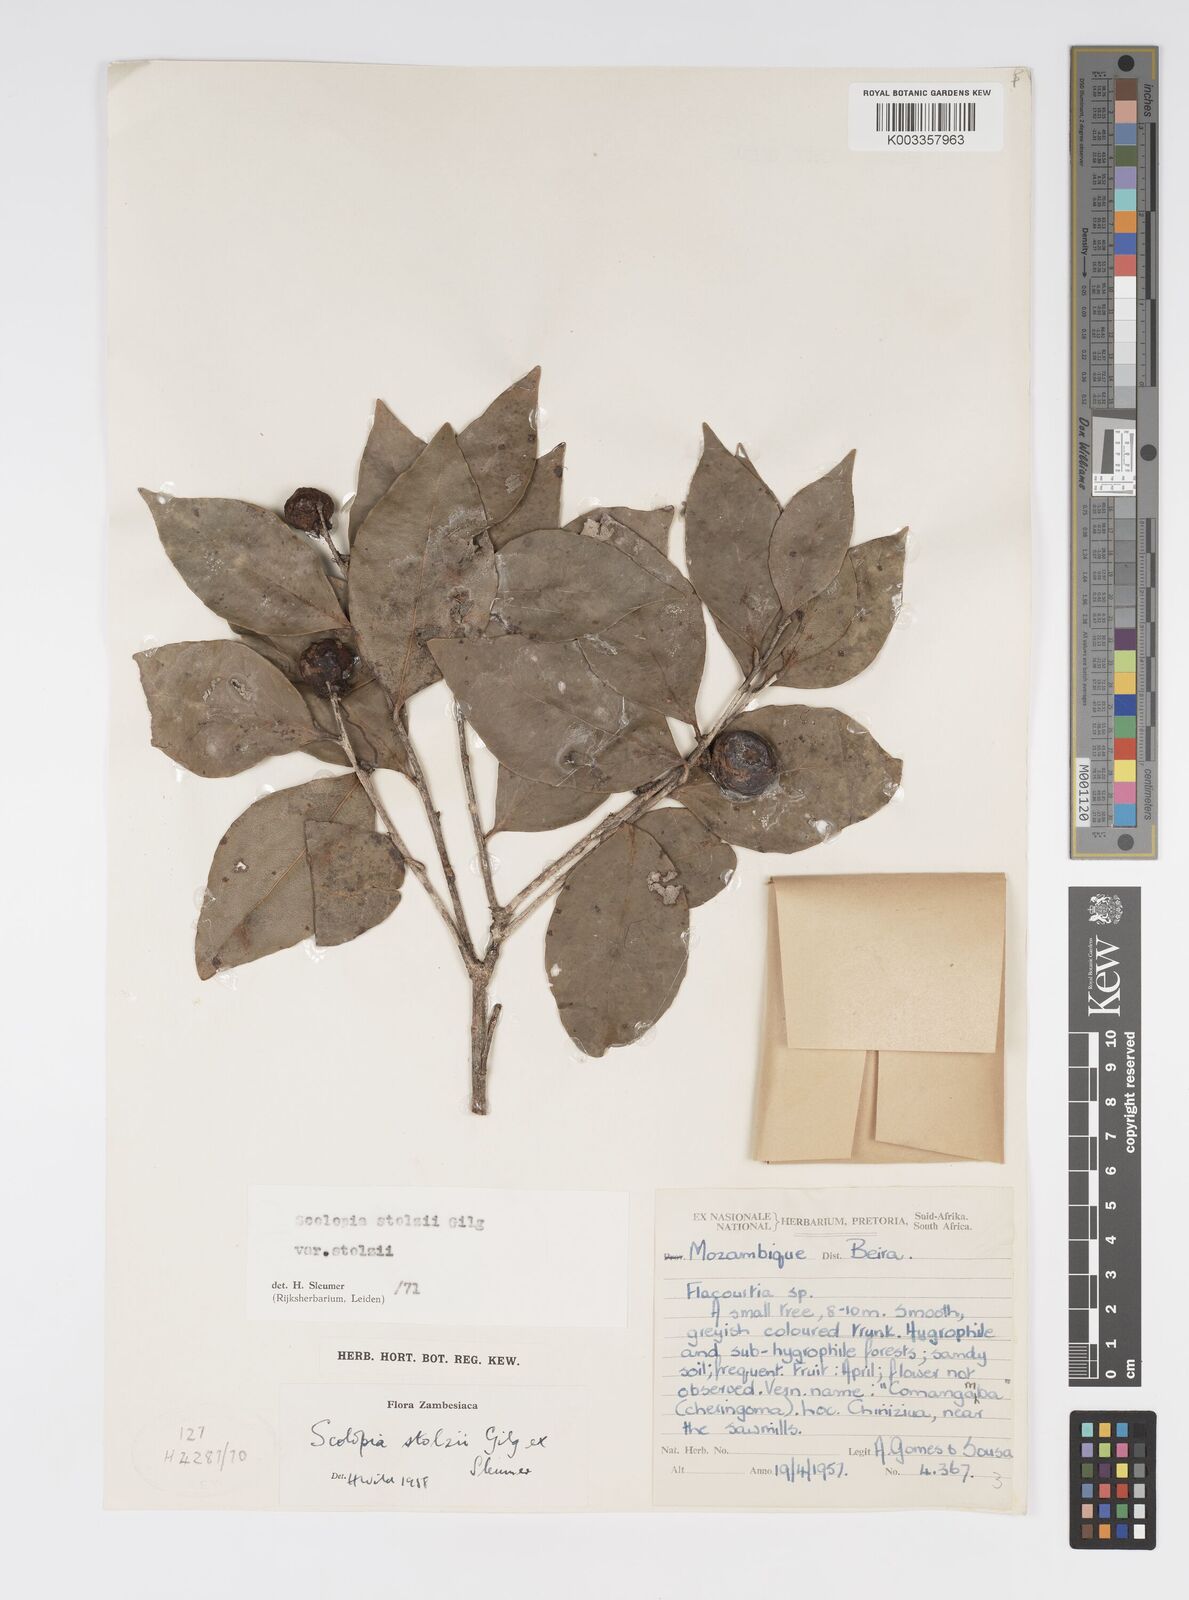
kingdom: Plantae
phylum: Tracheophyta
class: Magnoliopsida
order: Malpighiales
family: Salicaceae
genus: Scolopia
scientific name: Scolopia stolzii
